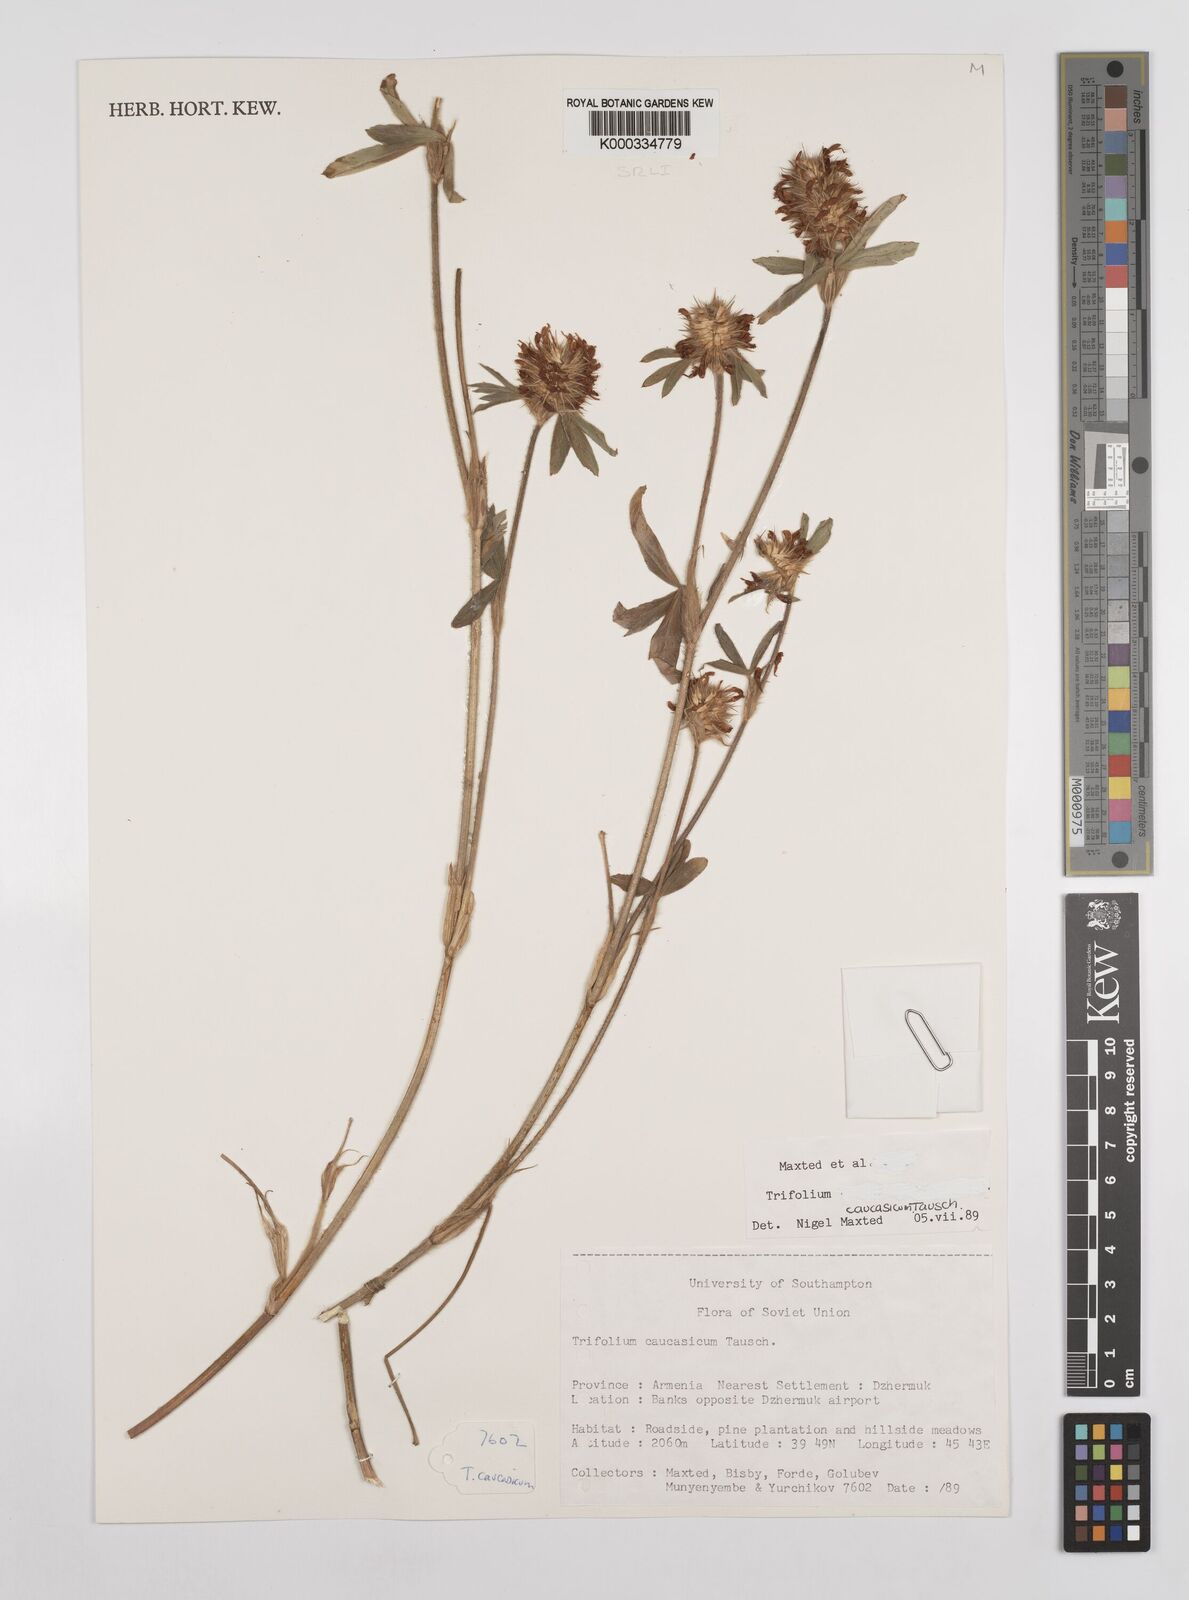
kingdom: Plantae
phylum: Tracheophyta
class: Magnoliopsida
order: Fabales
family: Fabaceae
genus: Trifolium
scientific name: Trifolium ochroleucon
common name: Sulphur clover
